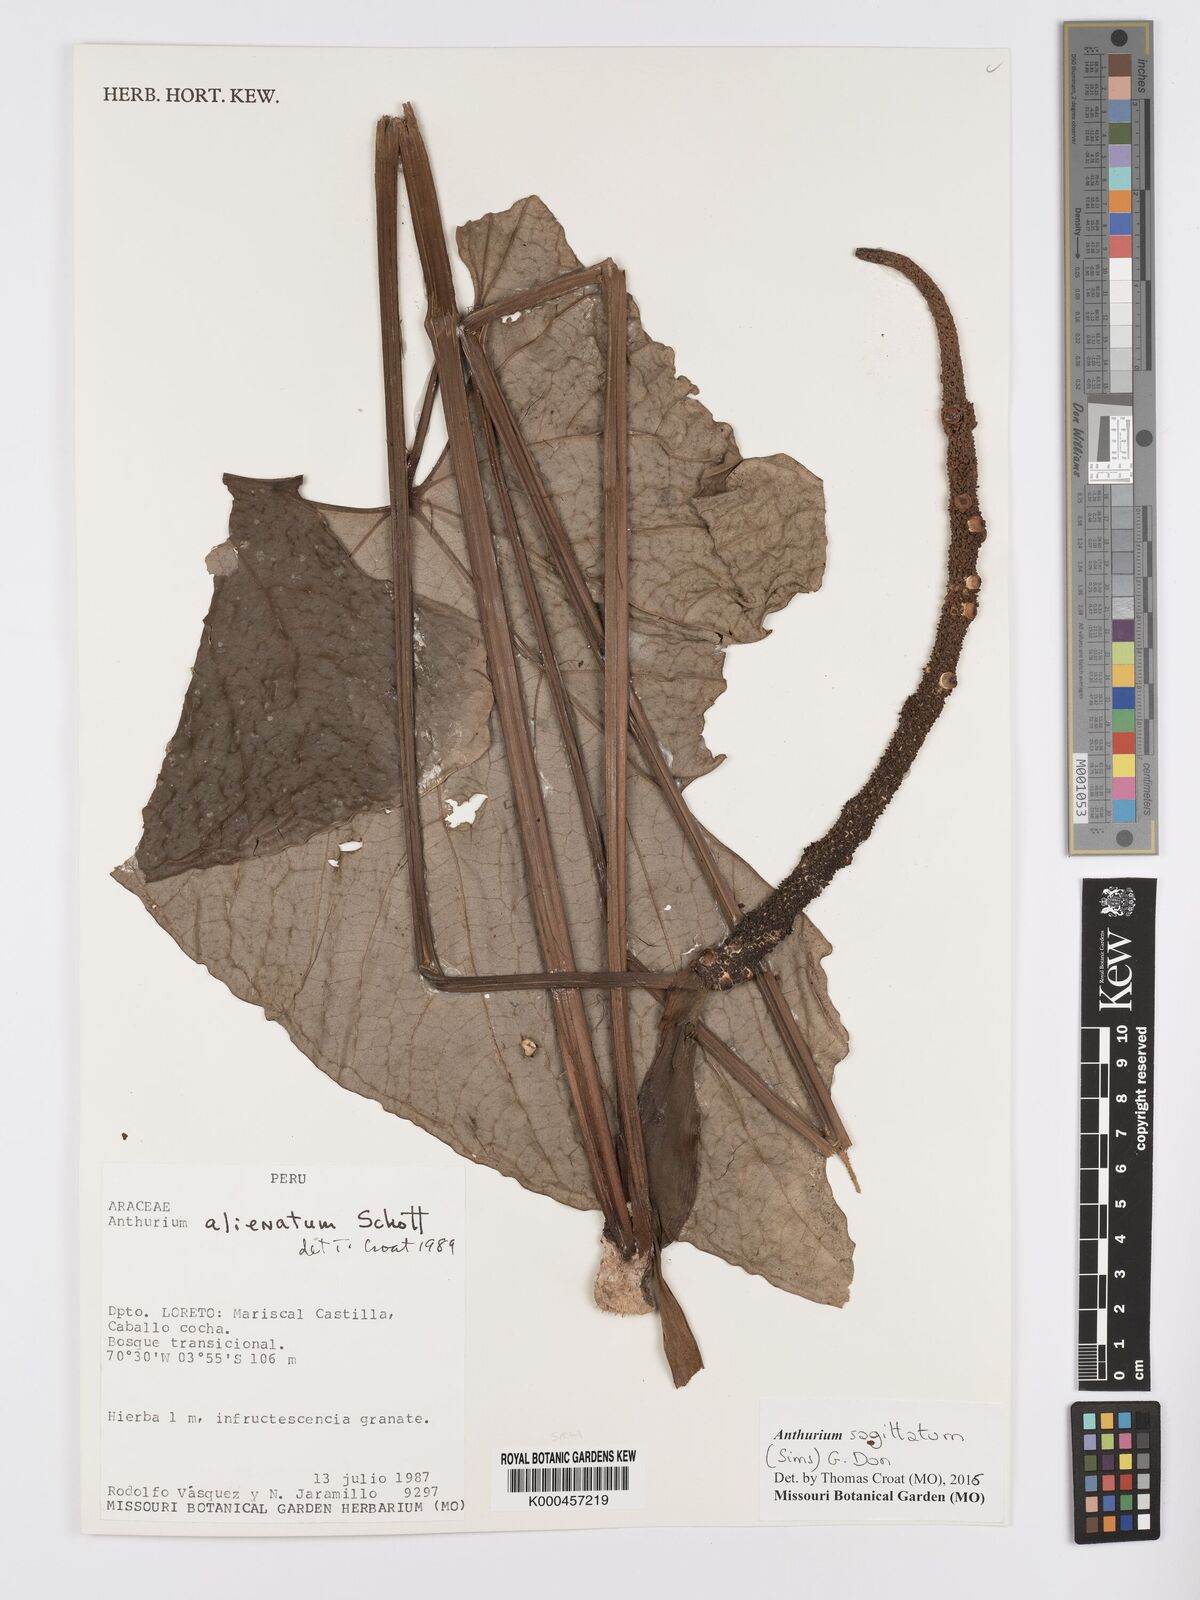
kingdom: Plantae
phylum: Tracheophyta
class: Liliopsida
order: Alismatales
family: Araceae
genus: Anthurium
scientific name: Anthurium sagittatum
